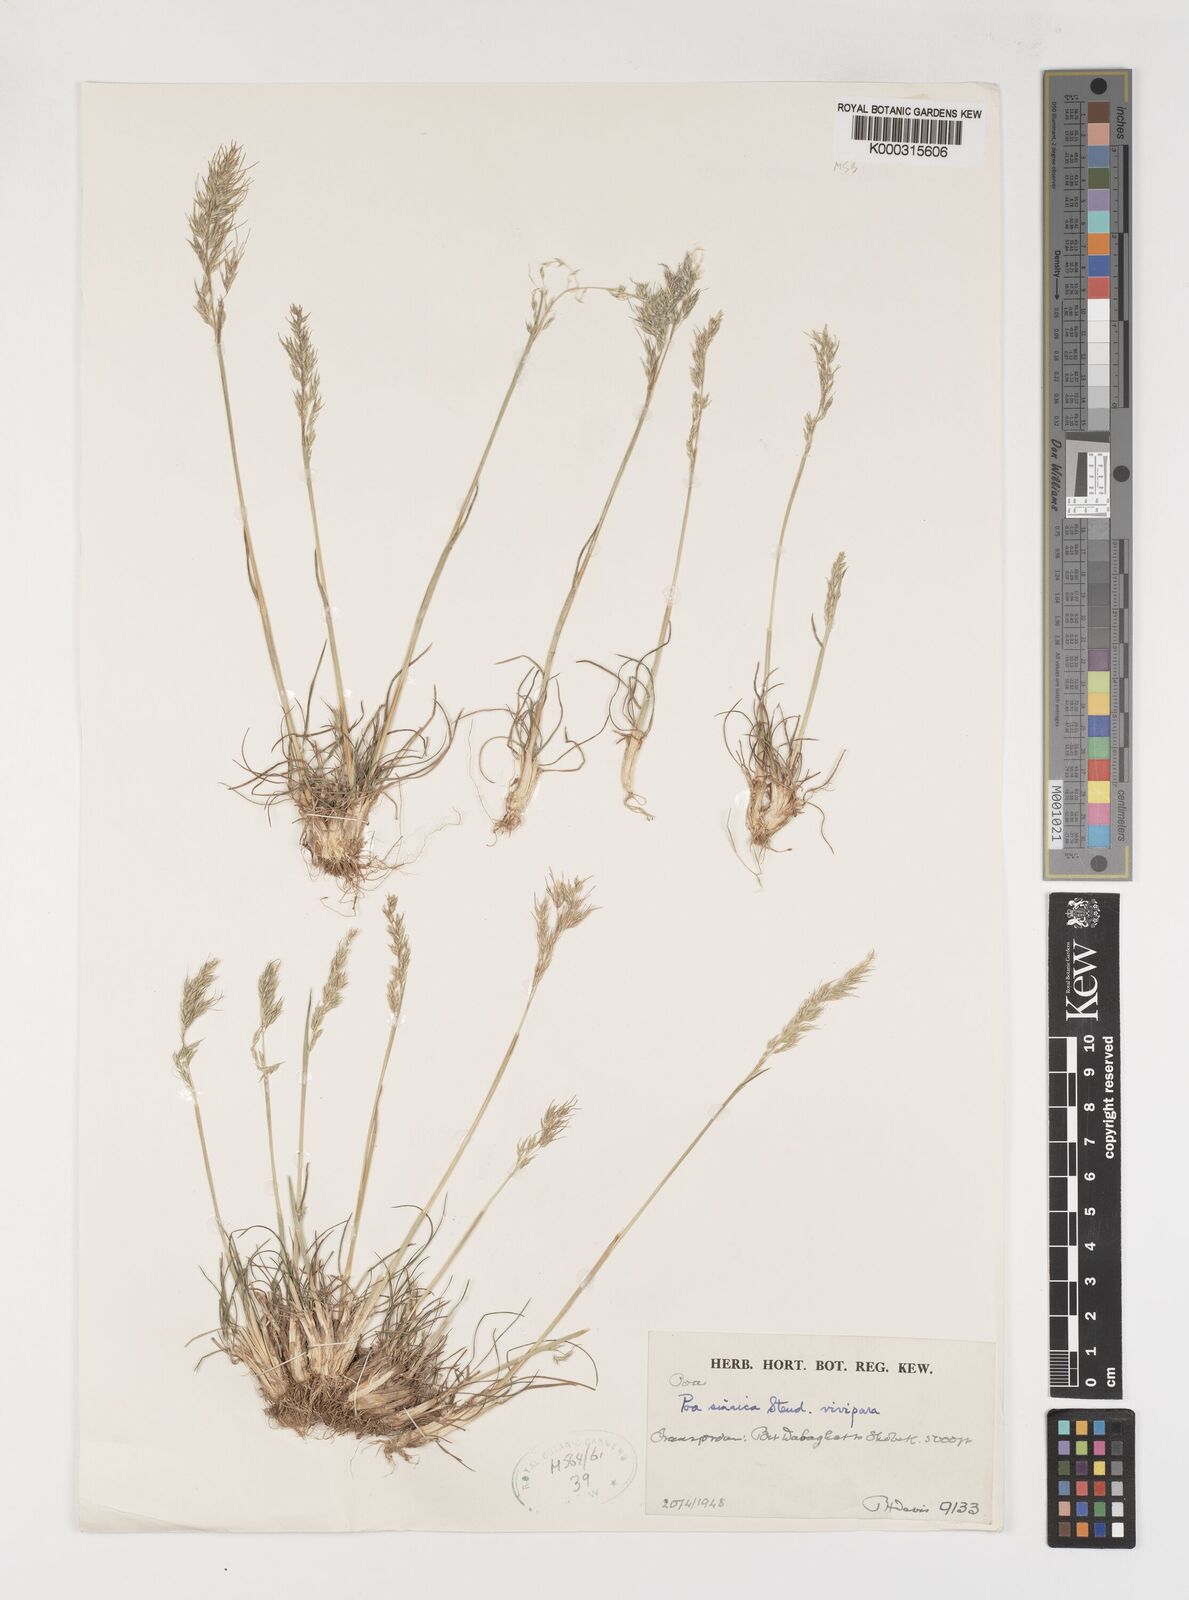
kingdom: Plantae
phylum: Tracheophyta
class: Liliopsida
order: Poales
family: Poaceae
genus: Poa
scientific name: Poa sinaica
